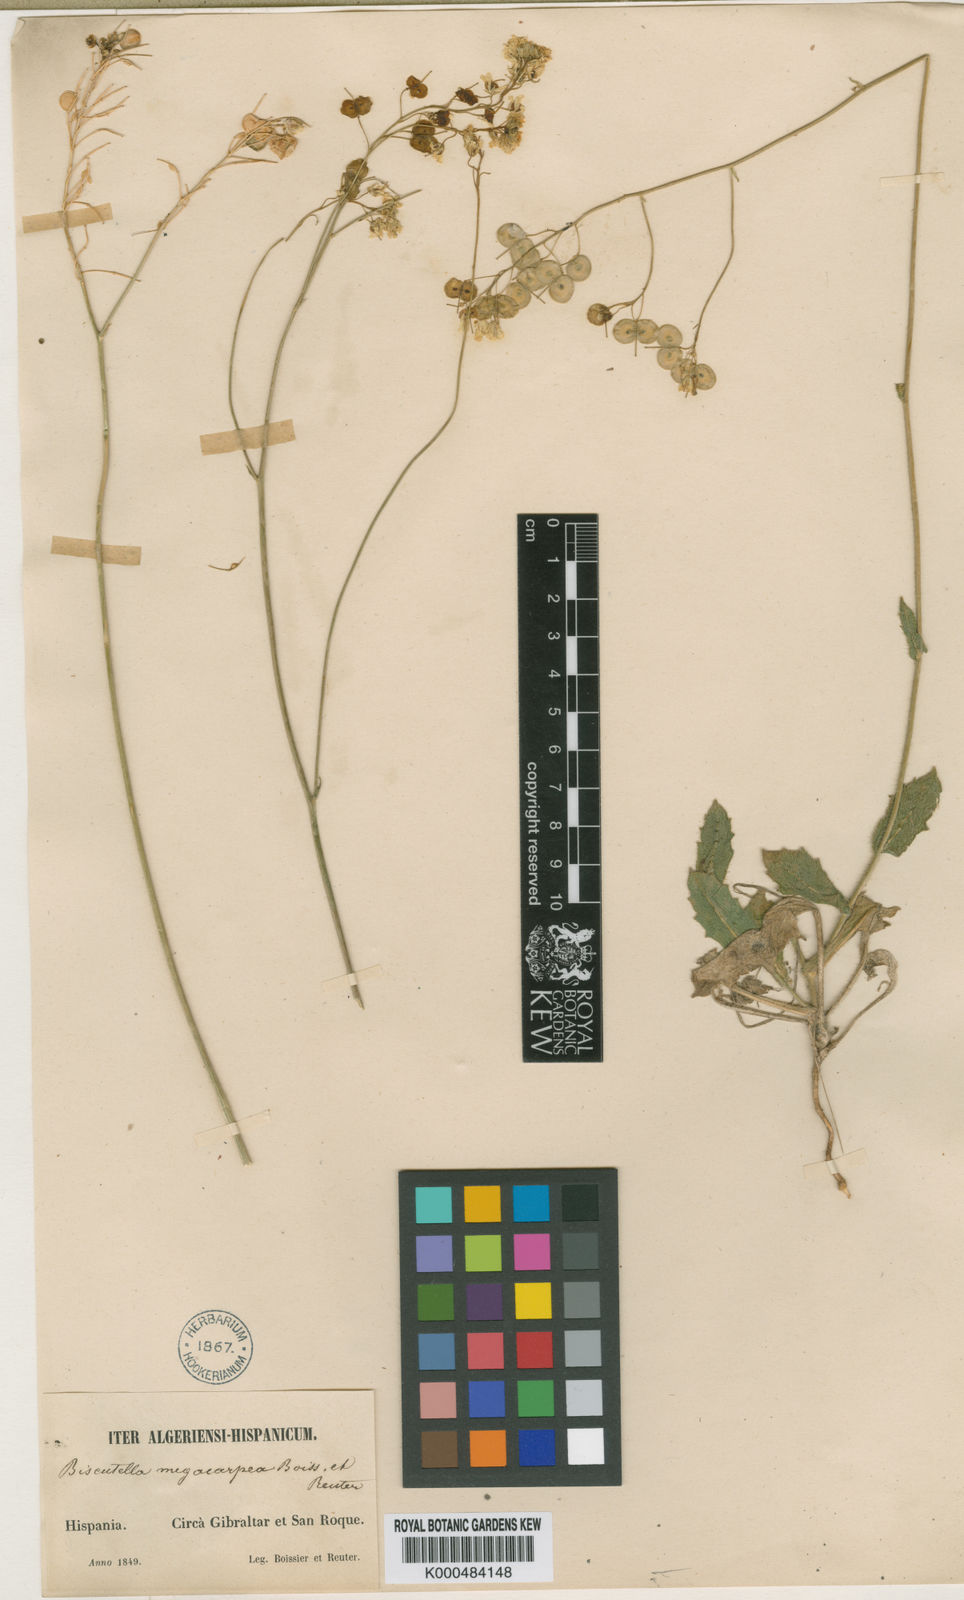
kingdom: Plantae
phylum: Tracheophyta
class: Magnoliopsida
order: Brassicales
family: Brassicaceae
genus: Biscutella
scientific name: Biscutella variegata
